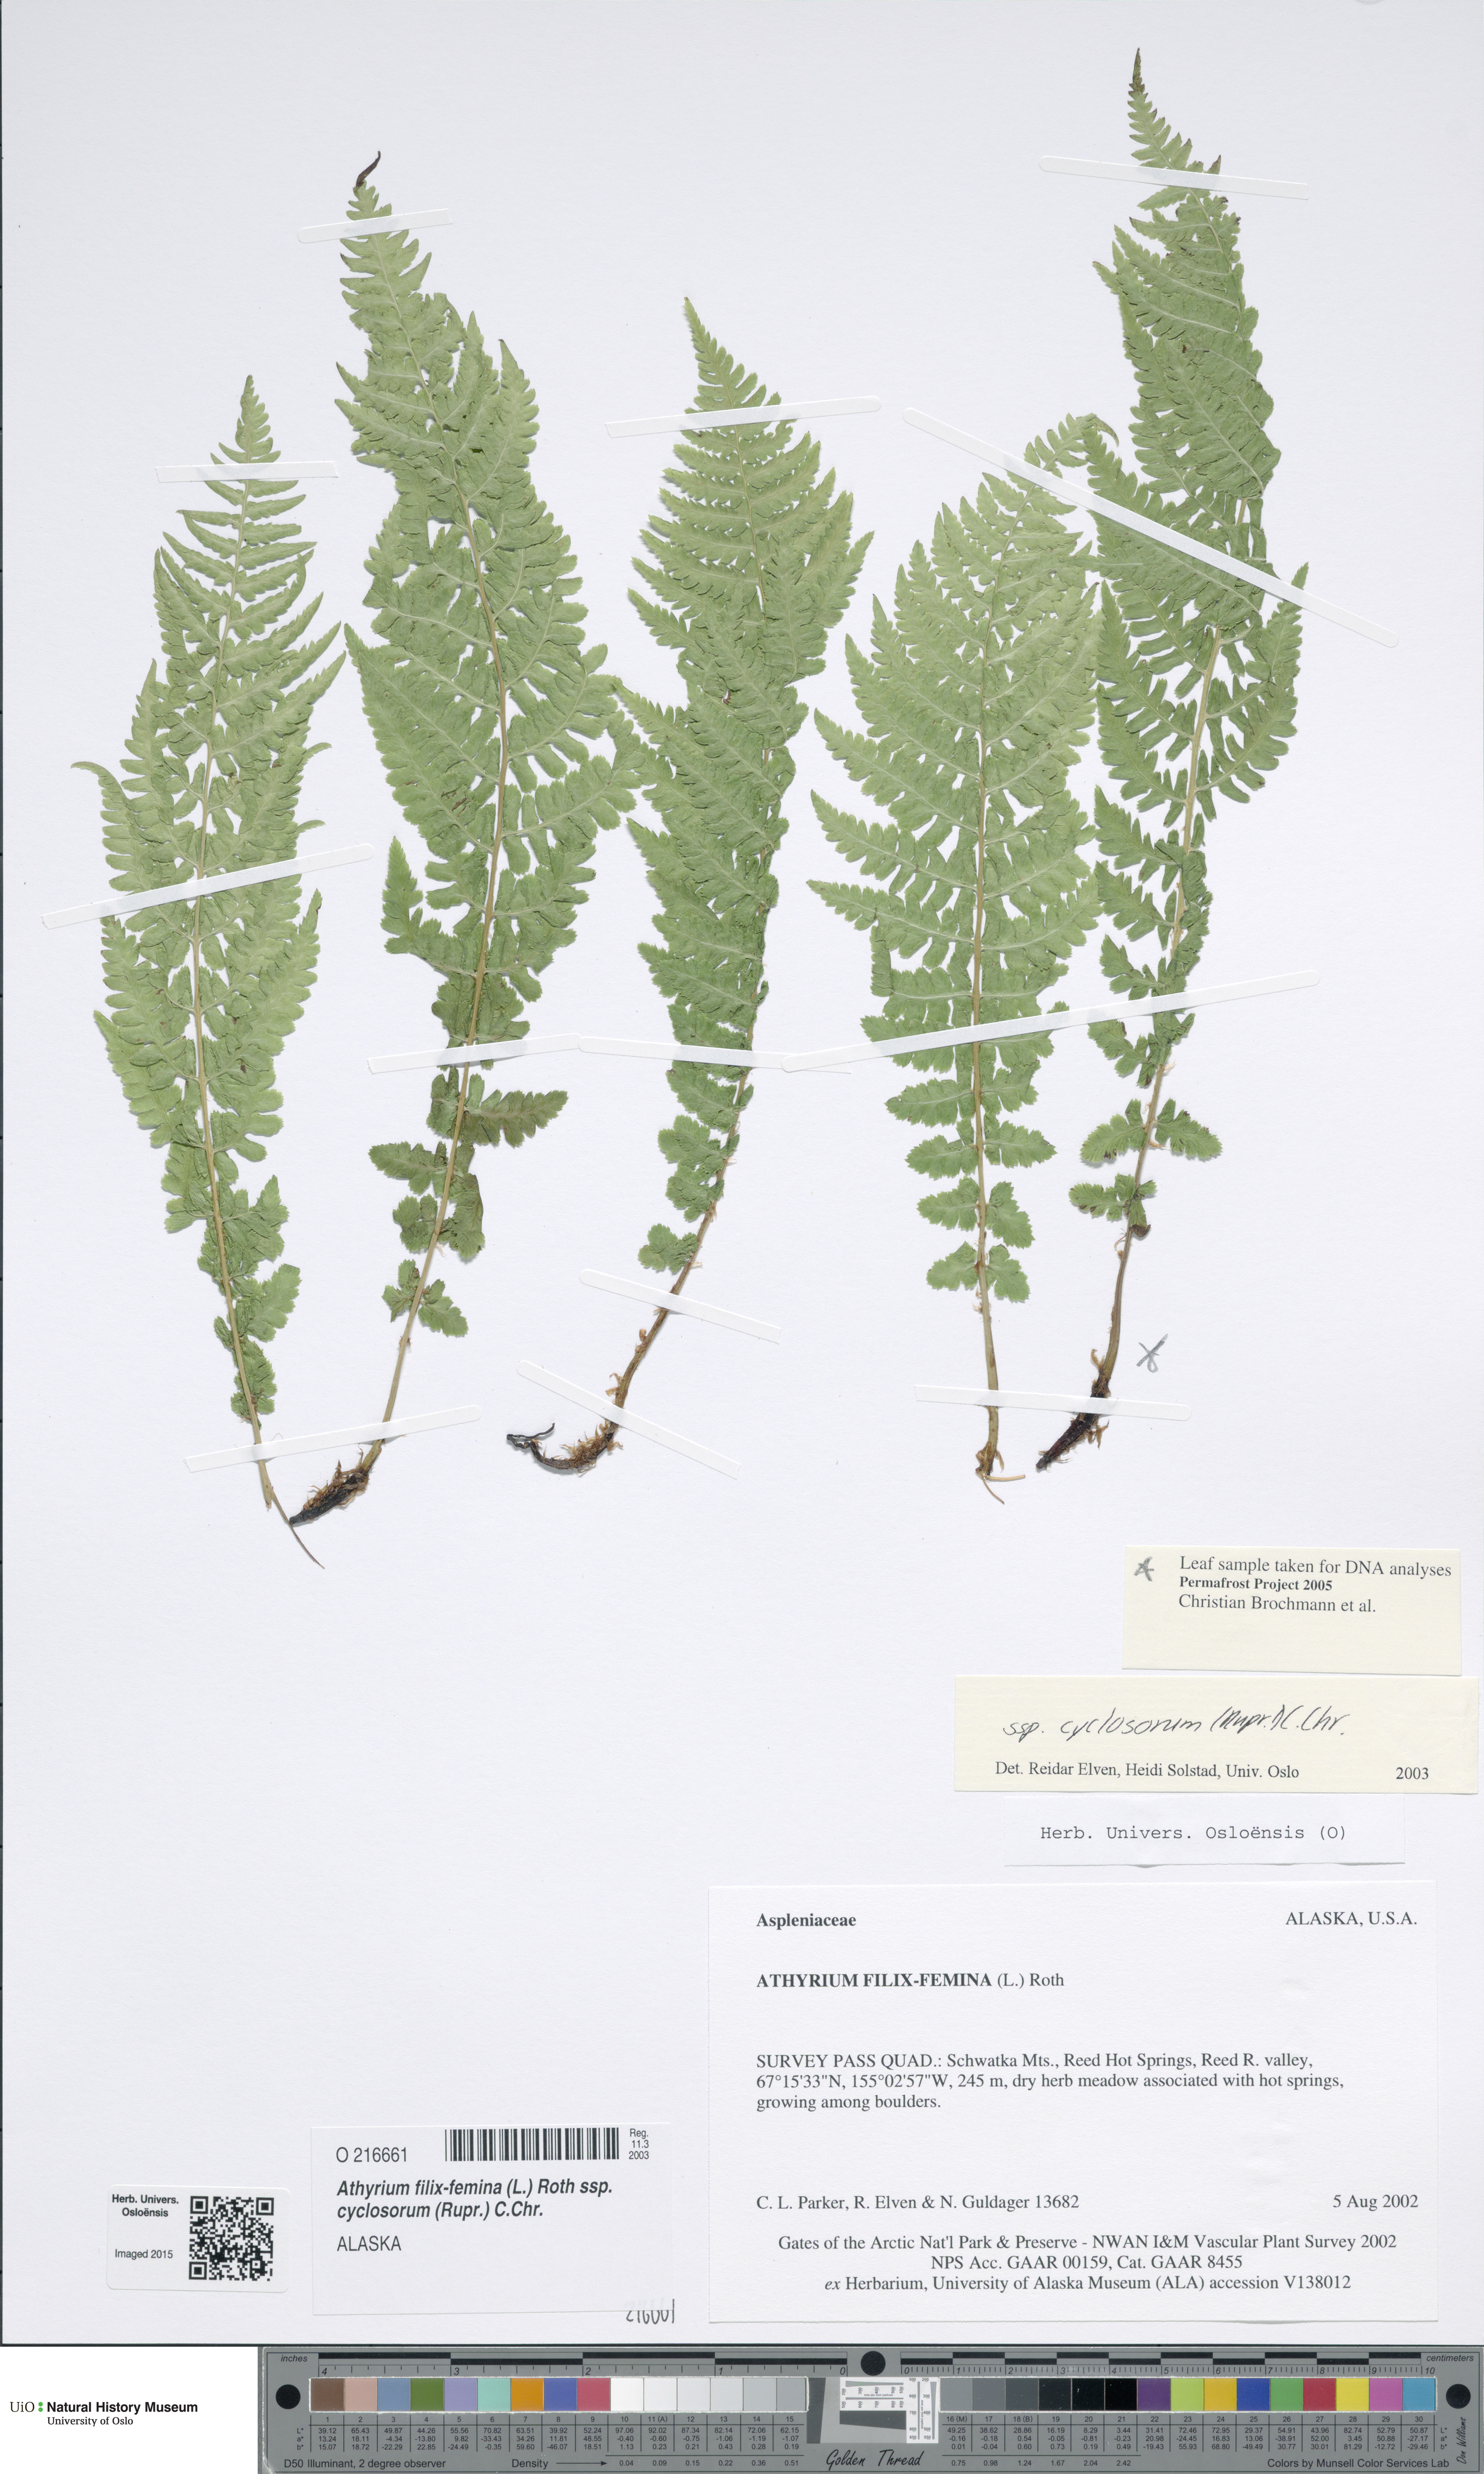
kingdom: Plantae
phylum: Tracheophyta
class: Polypodiopsida
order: Polypodiales
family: Athyriaceae
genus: Athyrium
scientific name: Athyrium cyclosorum
